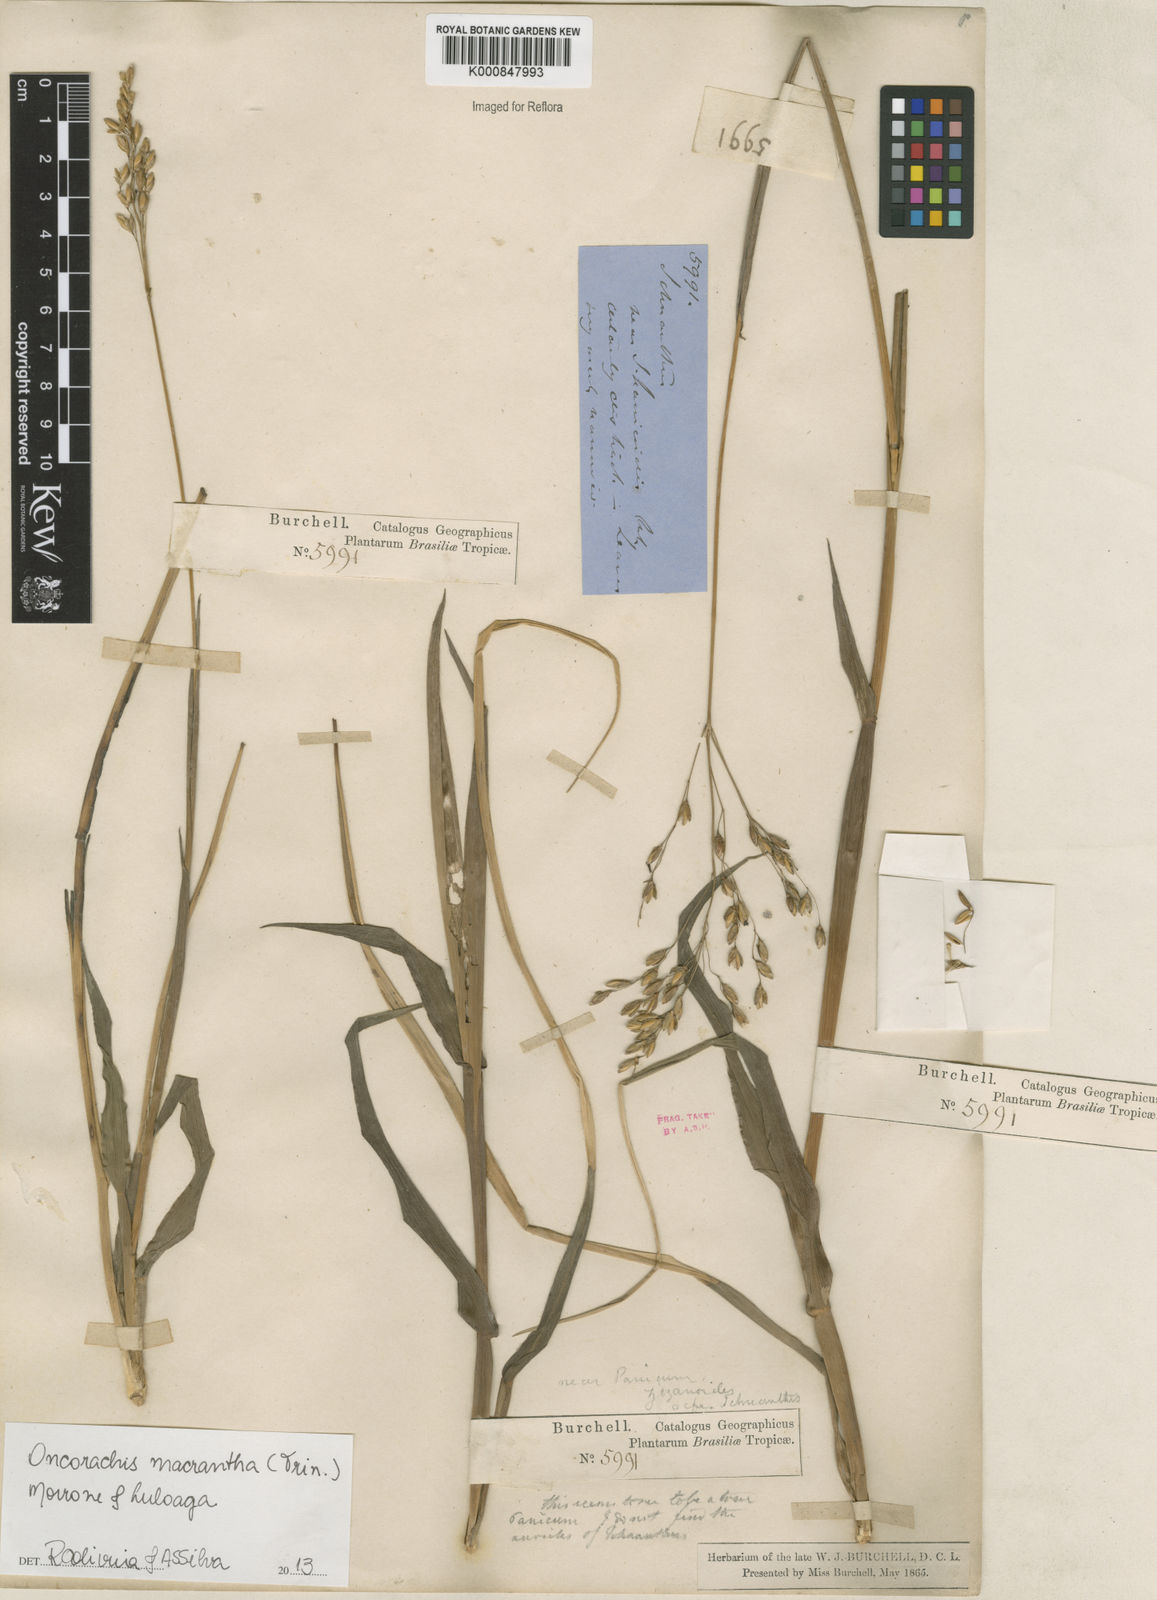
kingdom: Plantae
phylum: Tracheophyta
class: Liliopsida
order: Poales
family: Poaceae
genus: Oncorachis
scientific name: Oncorachis macrantha
